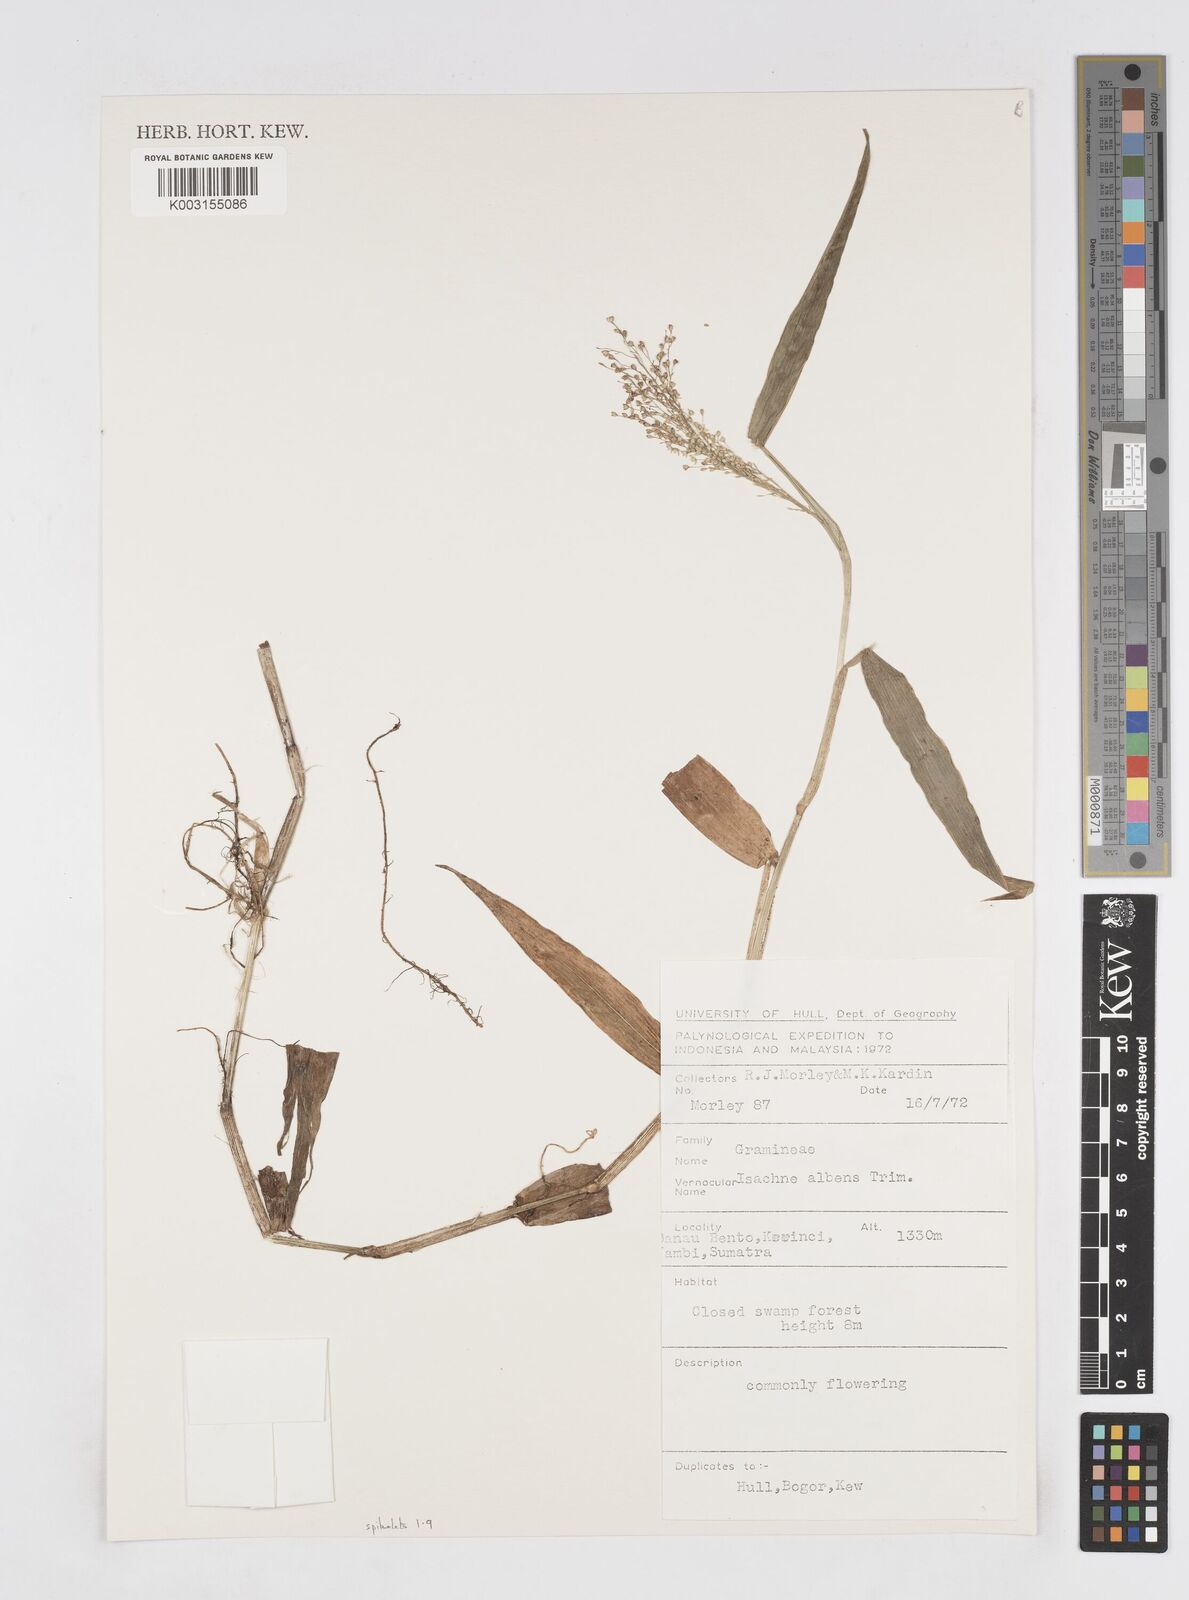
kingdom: Plantae
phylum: Tracheophyta
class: Liliopsida
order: Poales
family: Poaceae
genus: Isachne
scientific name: Isachne sylvestris
